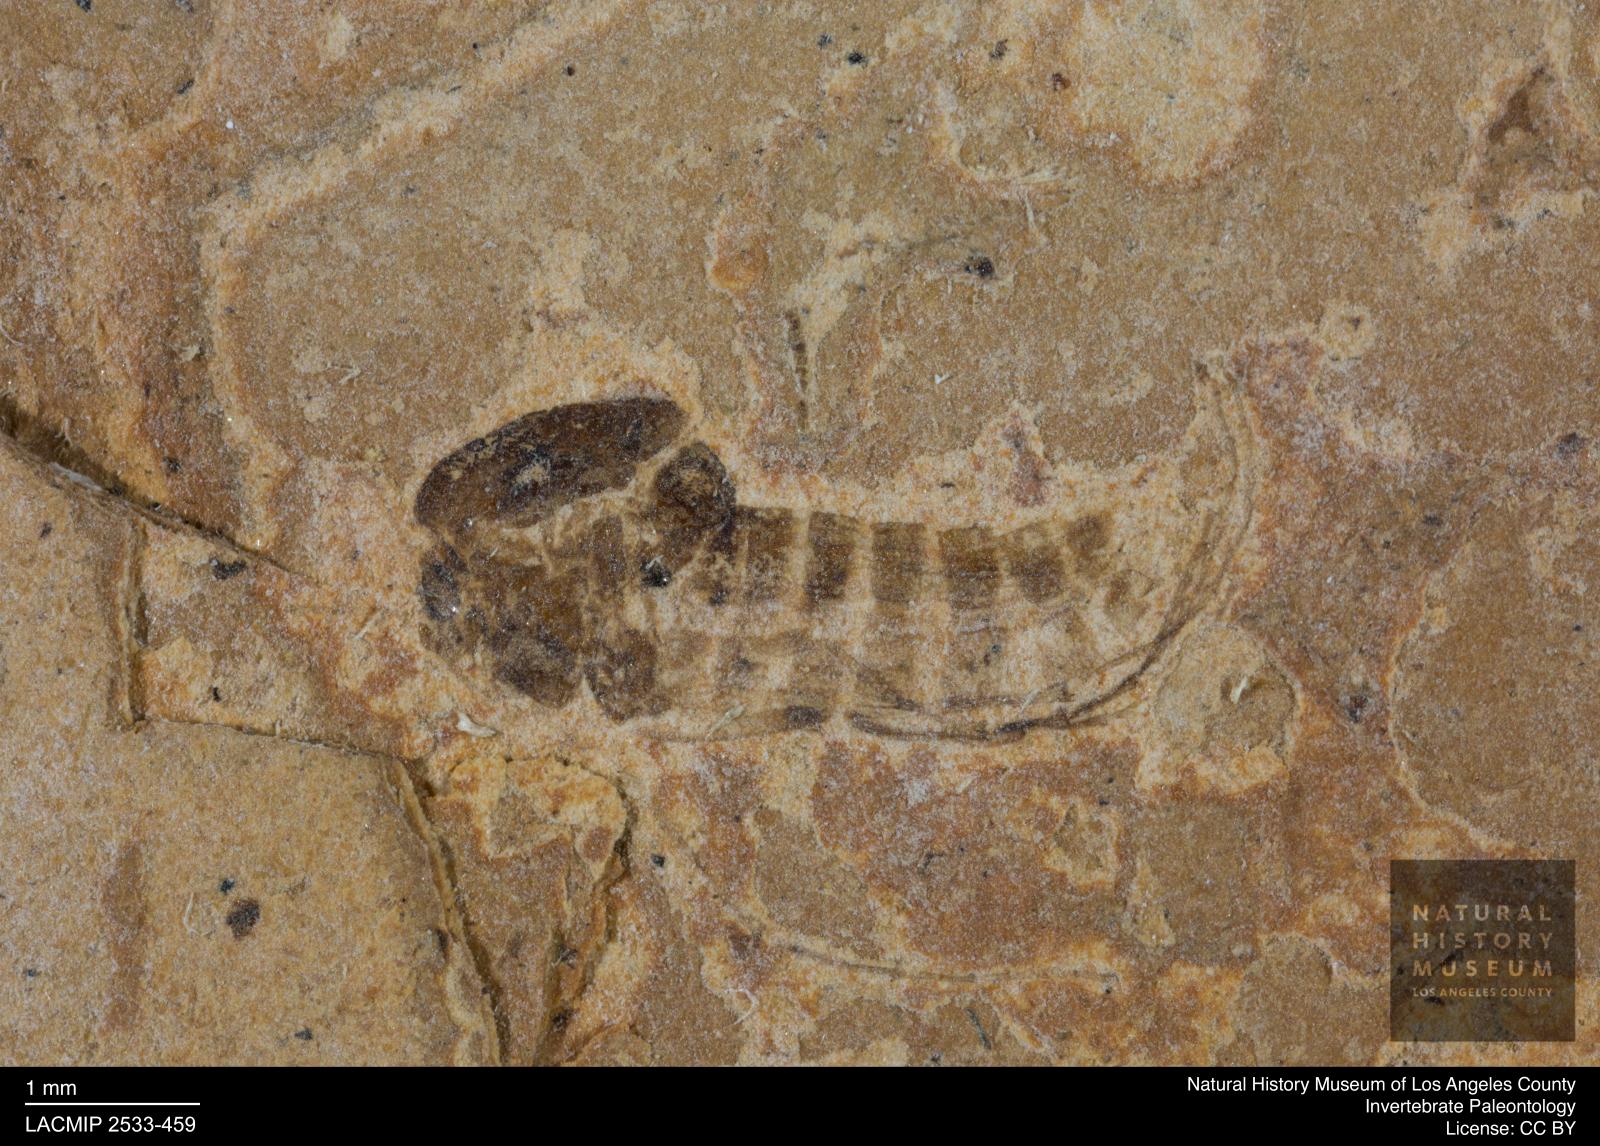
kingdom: Animalia
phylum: Arthropoda
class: Insecta
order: Diptera
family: Chironomidae
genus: Tanypus
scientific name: Tanypus thienemanni
